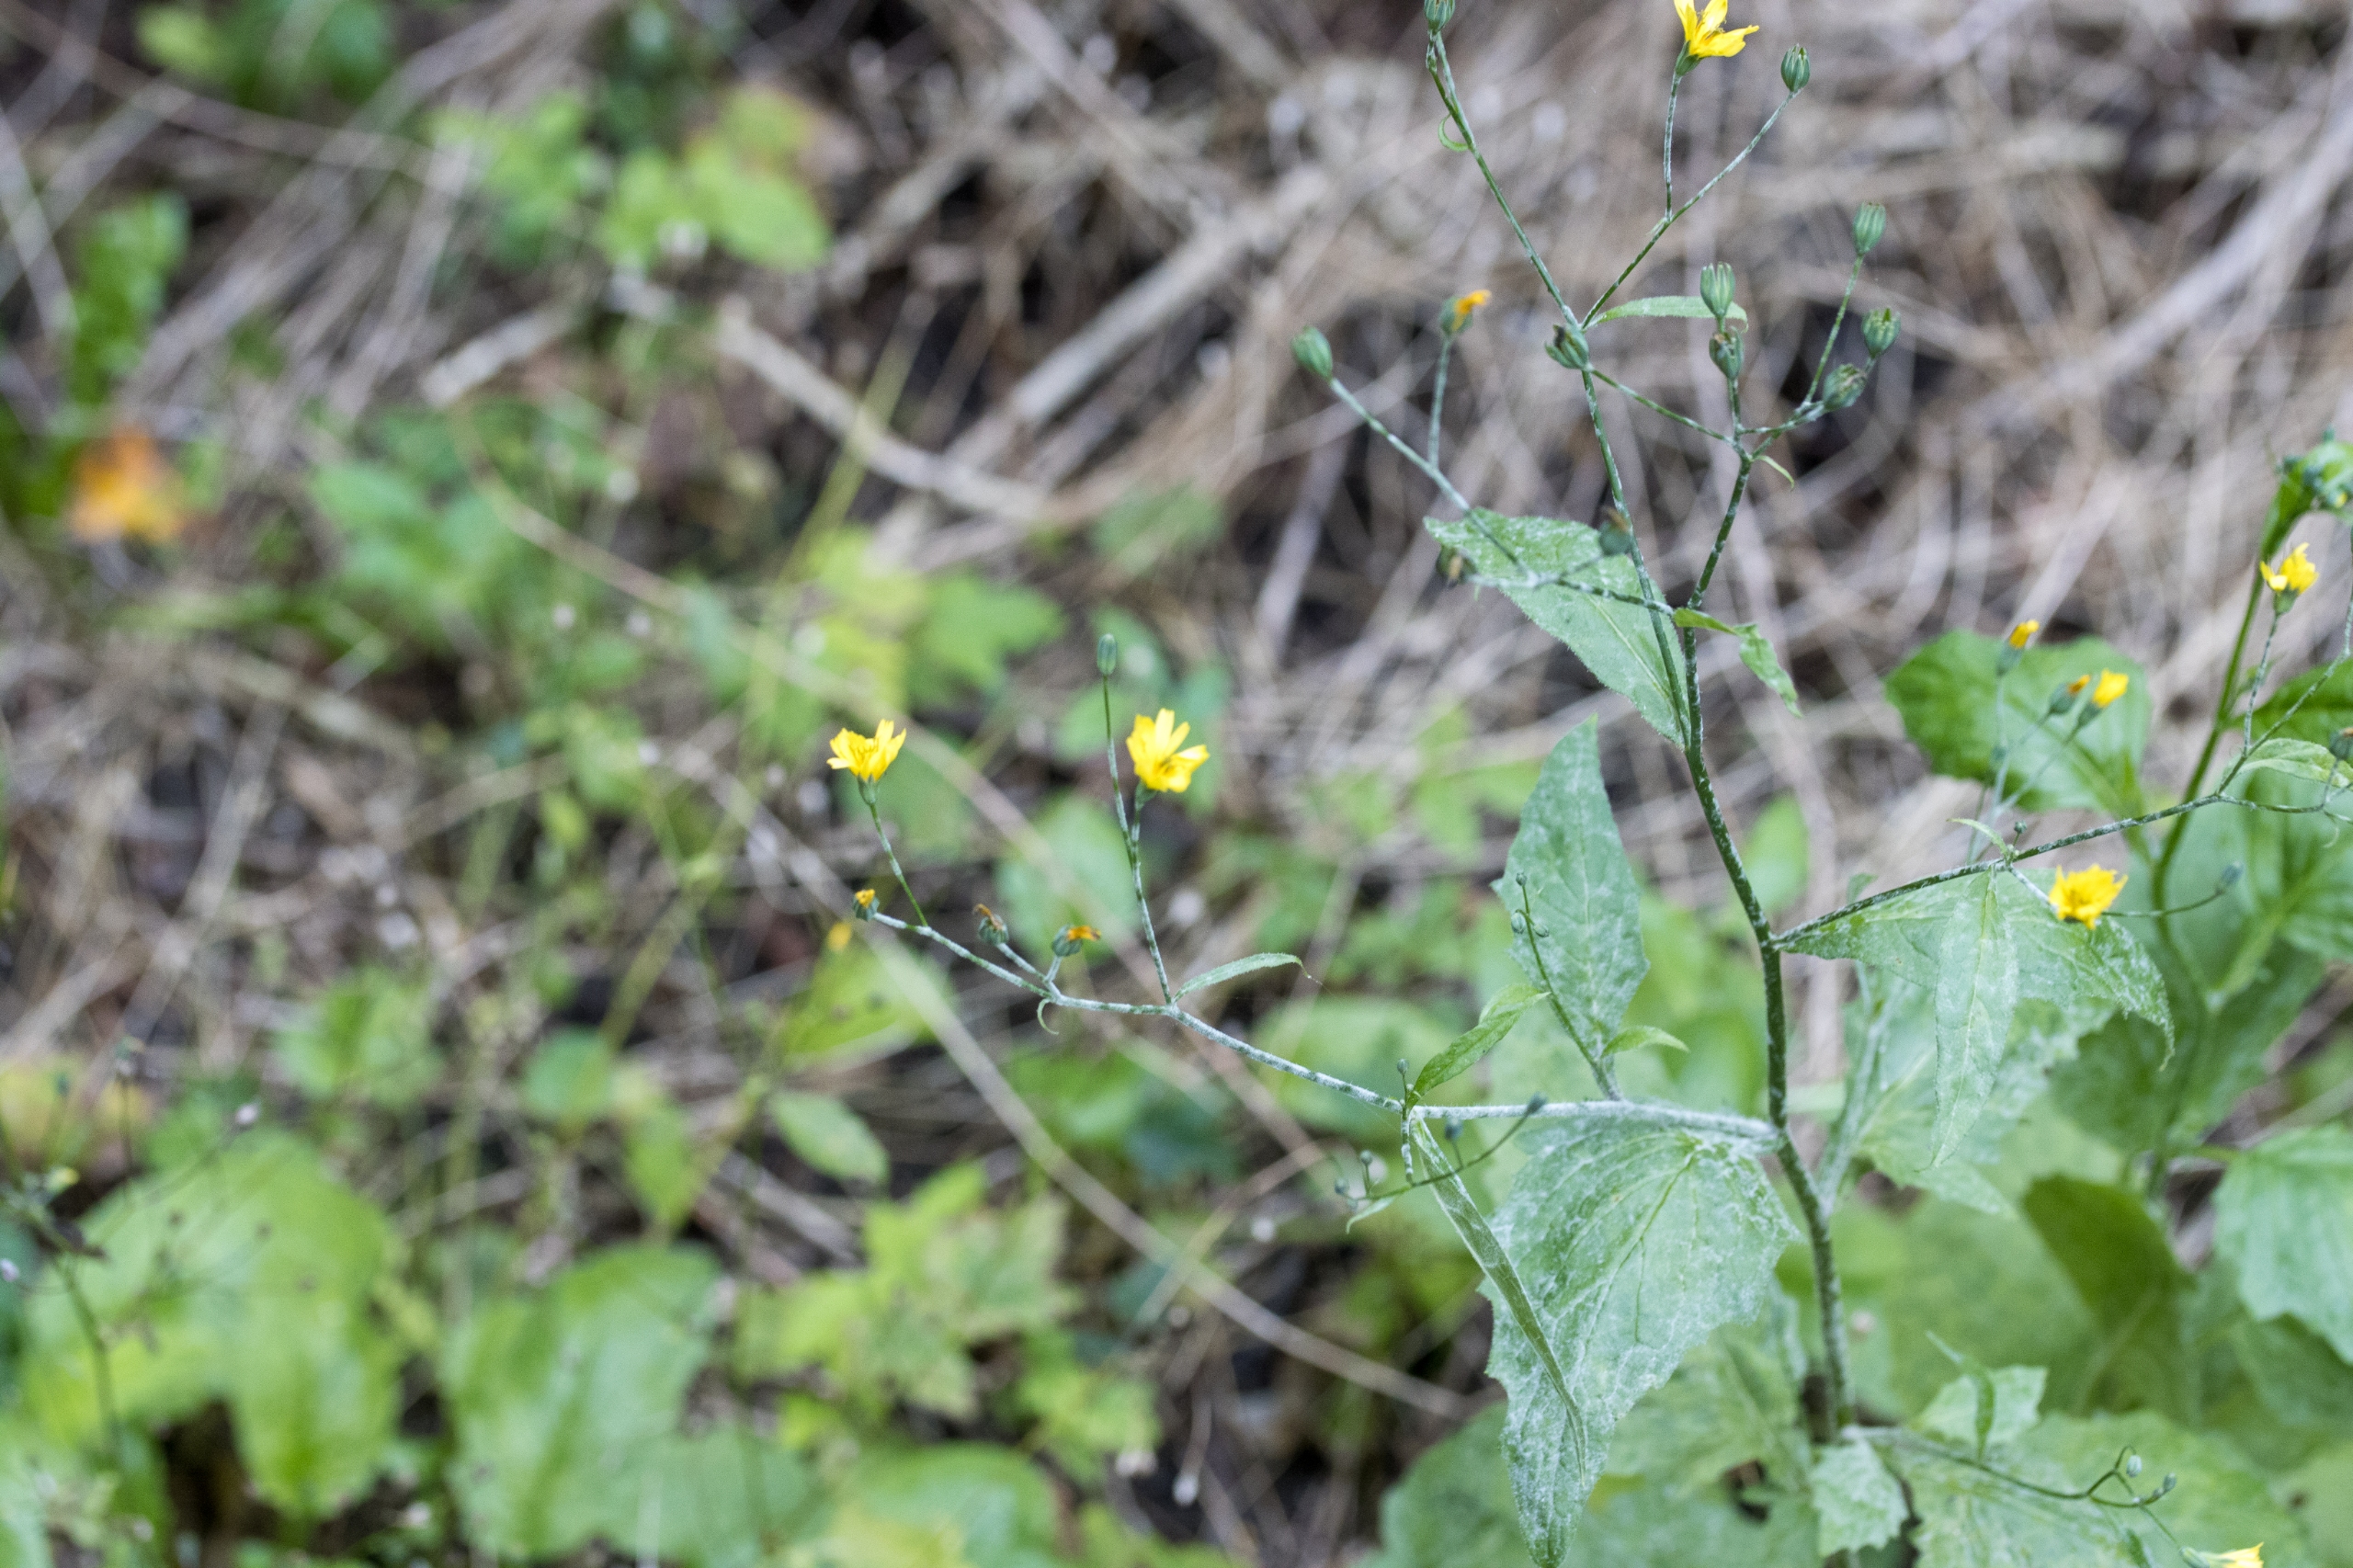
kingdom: Plantae
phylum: Tracheophyta
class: Magnoliopsida
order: Asterales
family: Asteraceae
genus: Lapsana
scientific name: Lapsana communis
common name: Haremad
